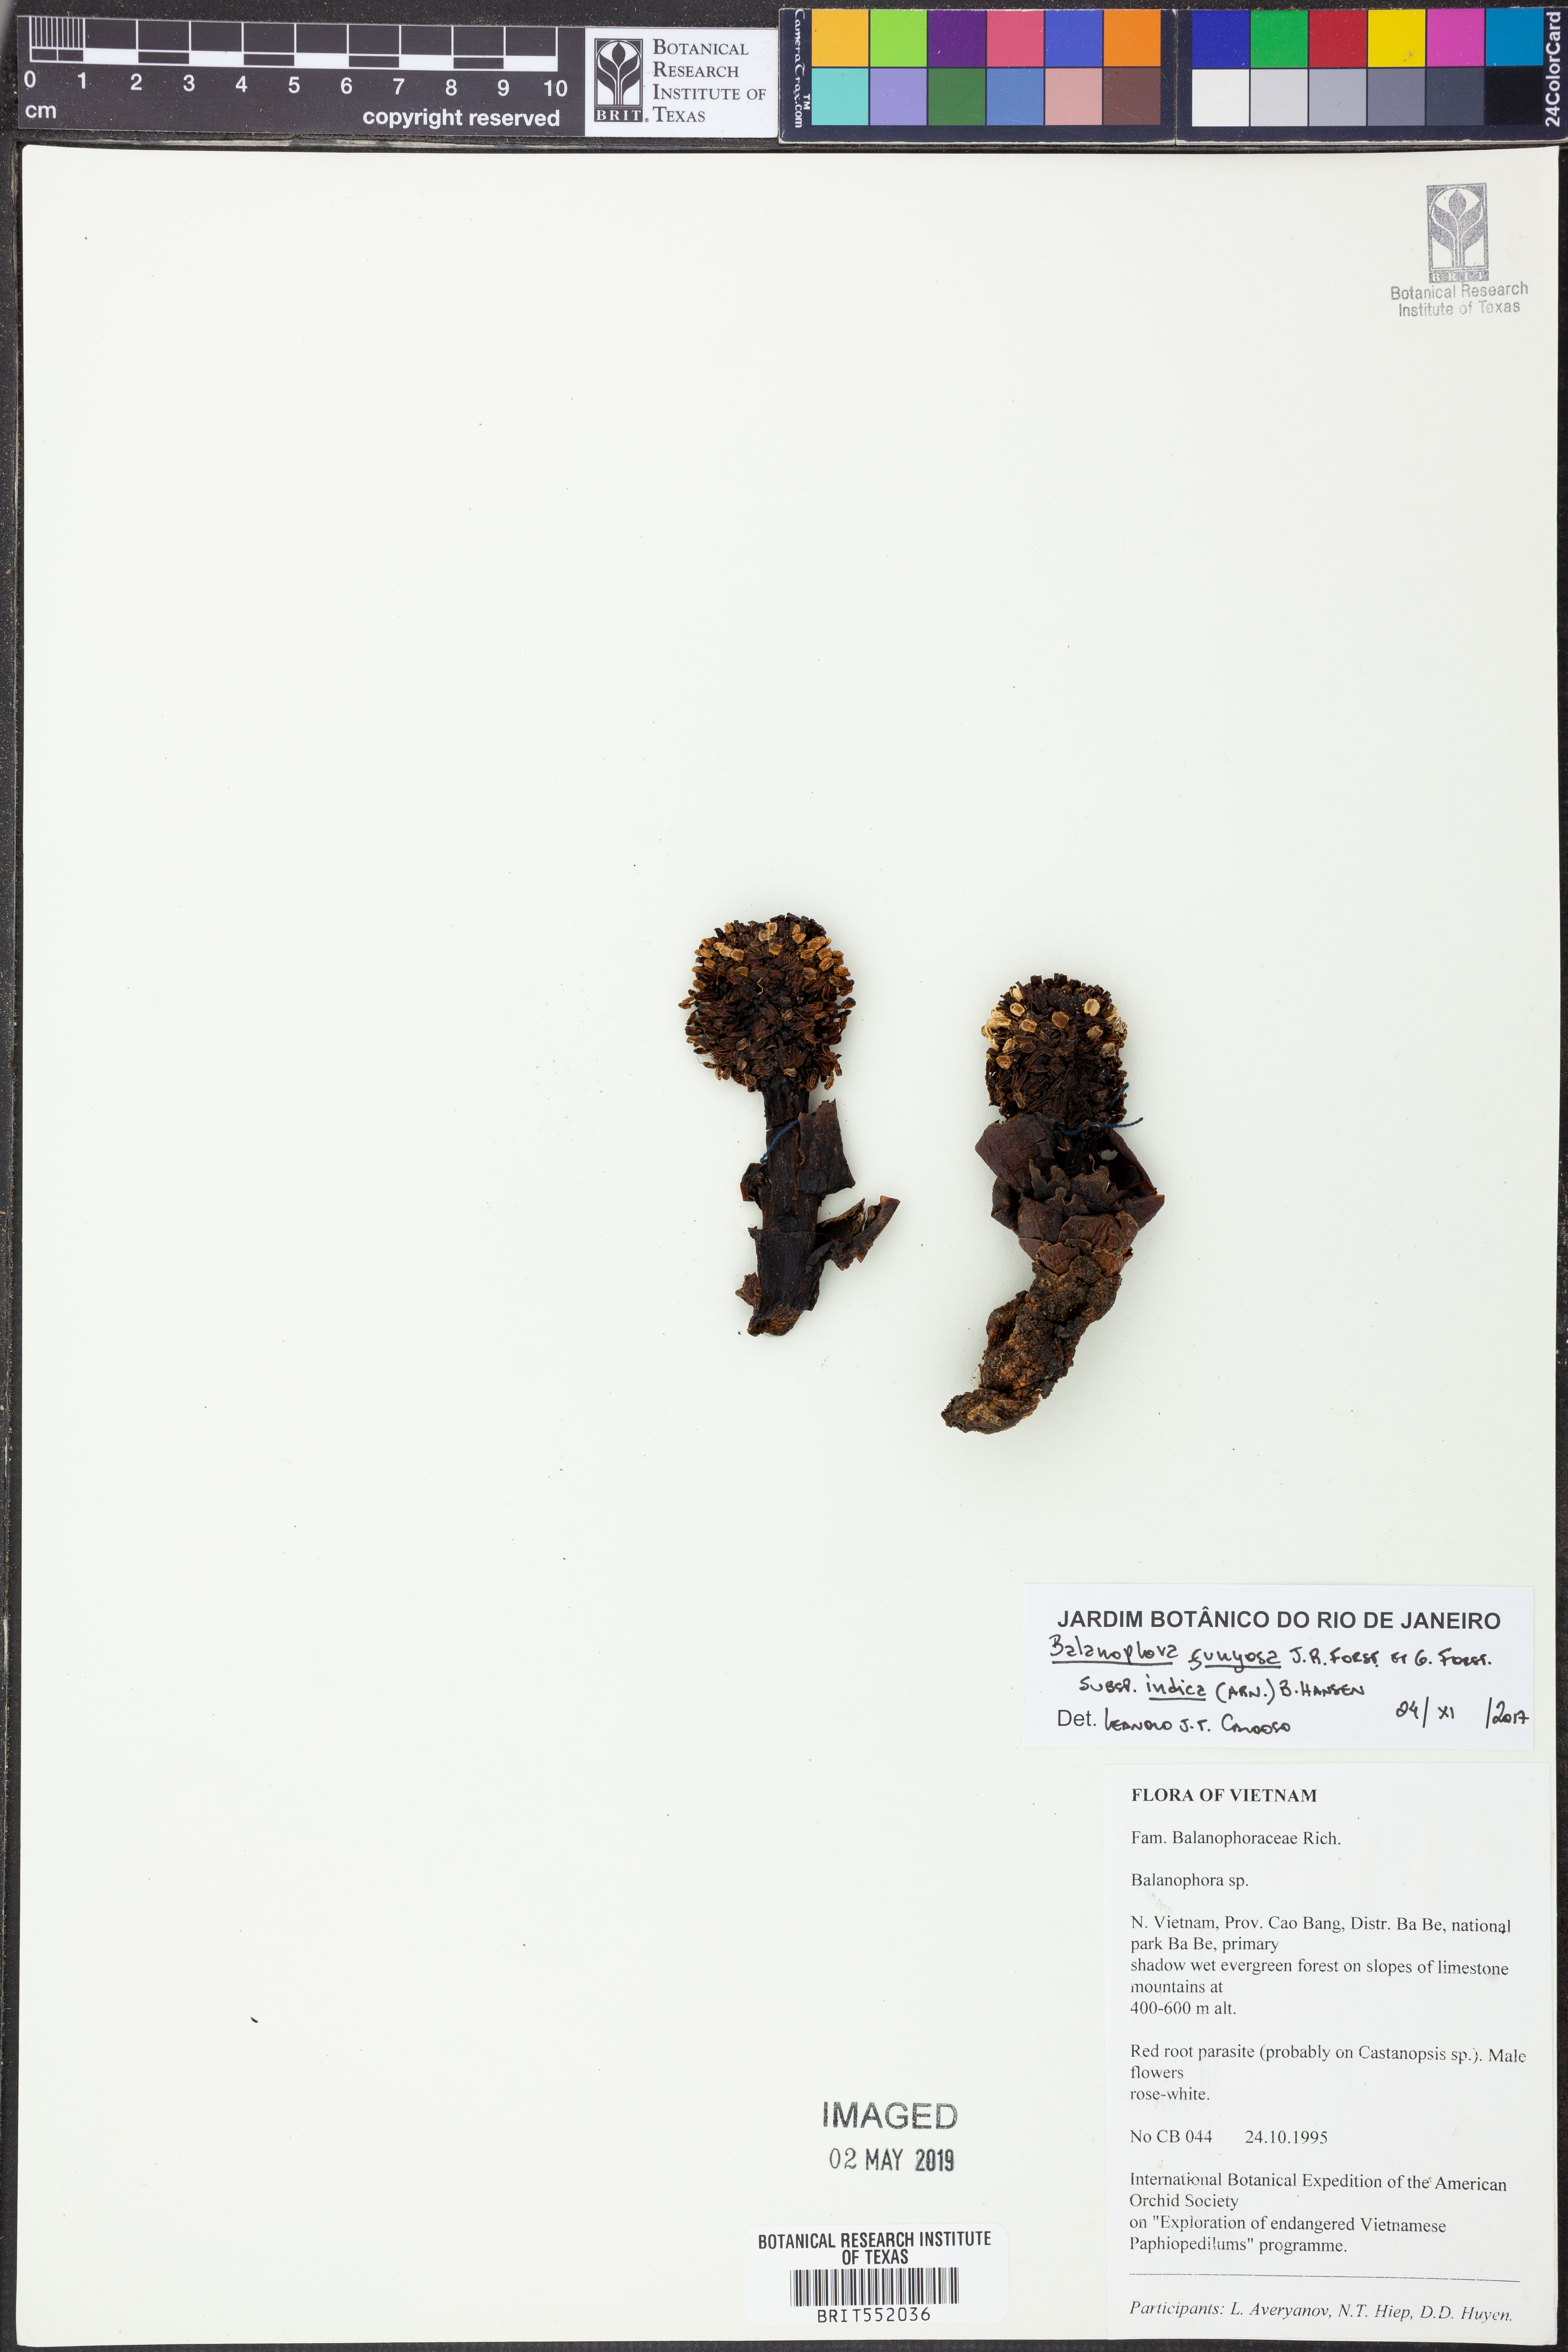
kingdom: Plantae
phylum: Tracheophyta
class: Magnoliopsida
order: Santalales
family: Balanophoraceae
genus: Balanophora
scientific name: Balanophora fungosa
